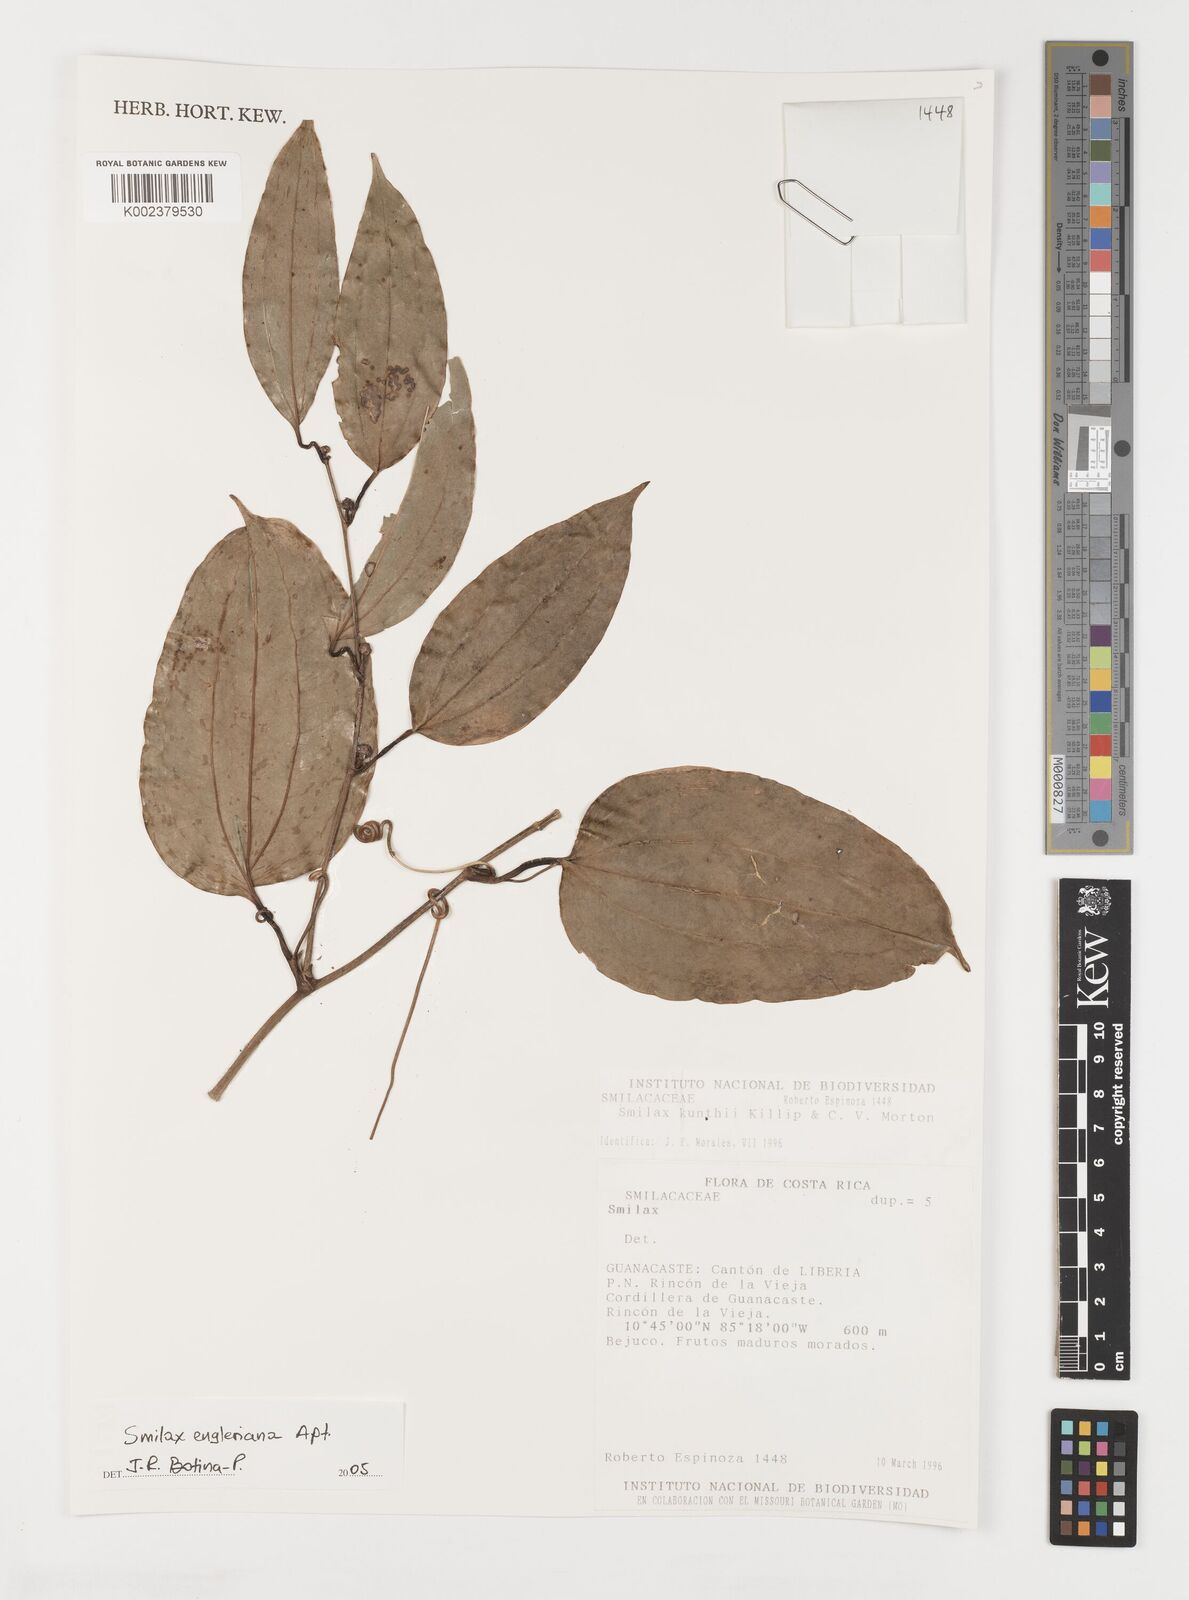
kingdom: Plantae
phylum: Tracheophyta
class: Liliopsida
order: Liliales
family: Smilacaceae
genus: Smilax
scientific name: Smilax domingensis
